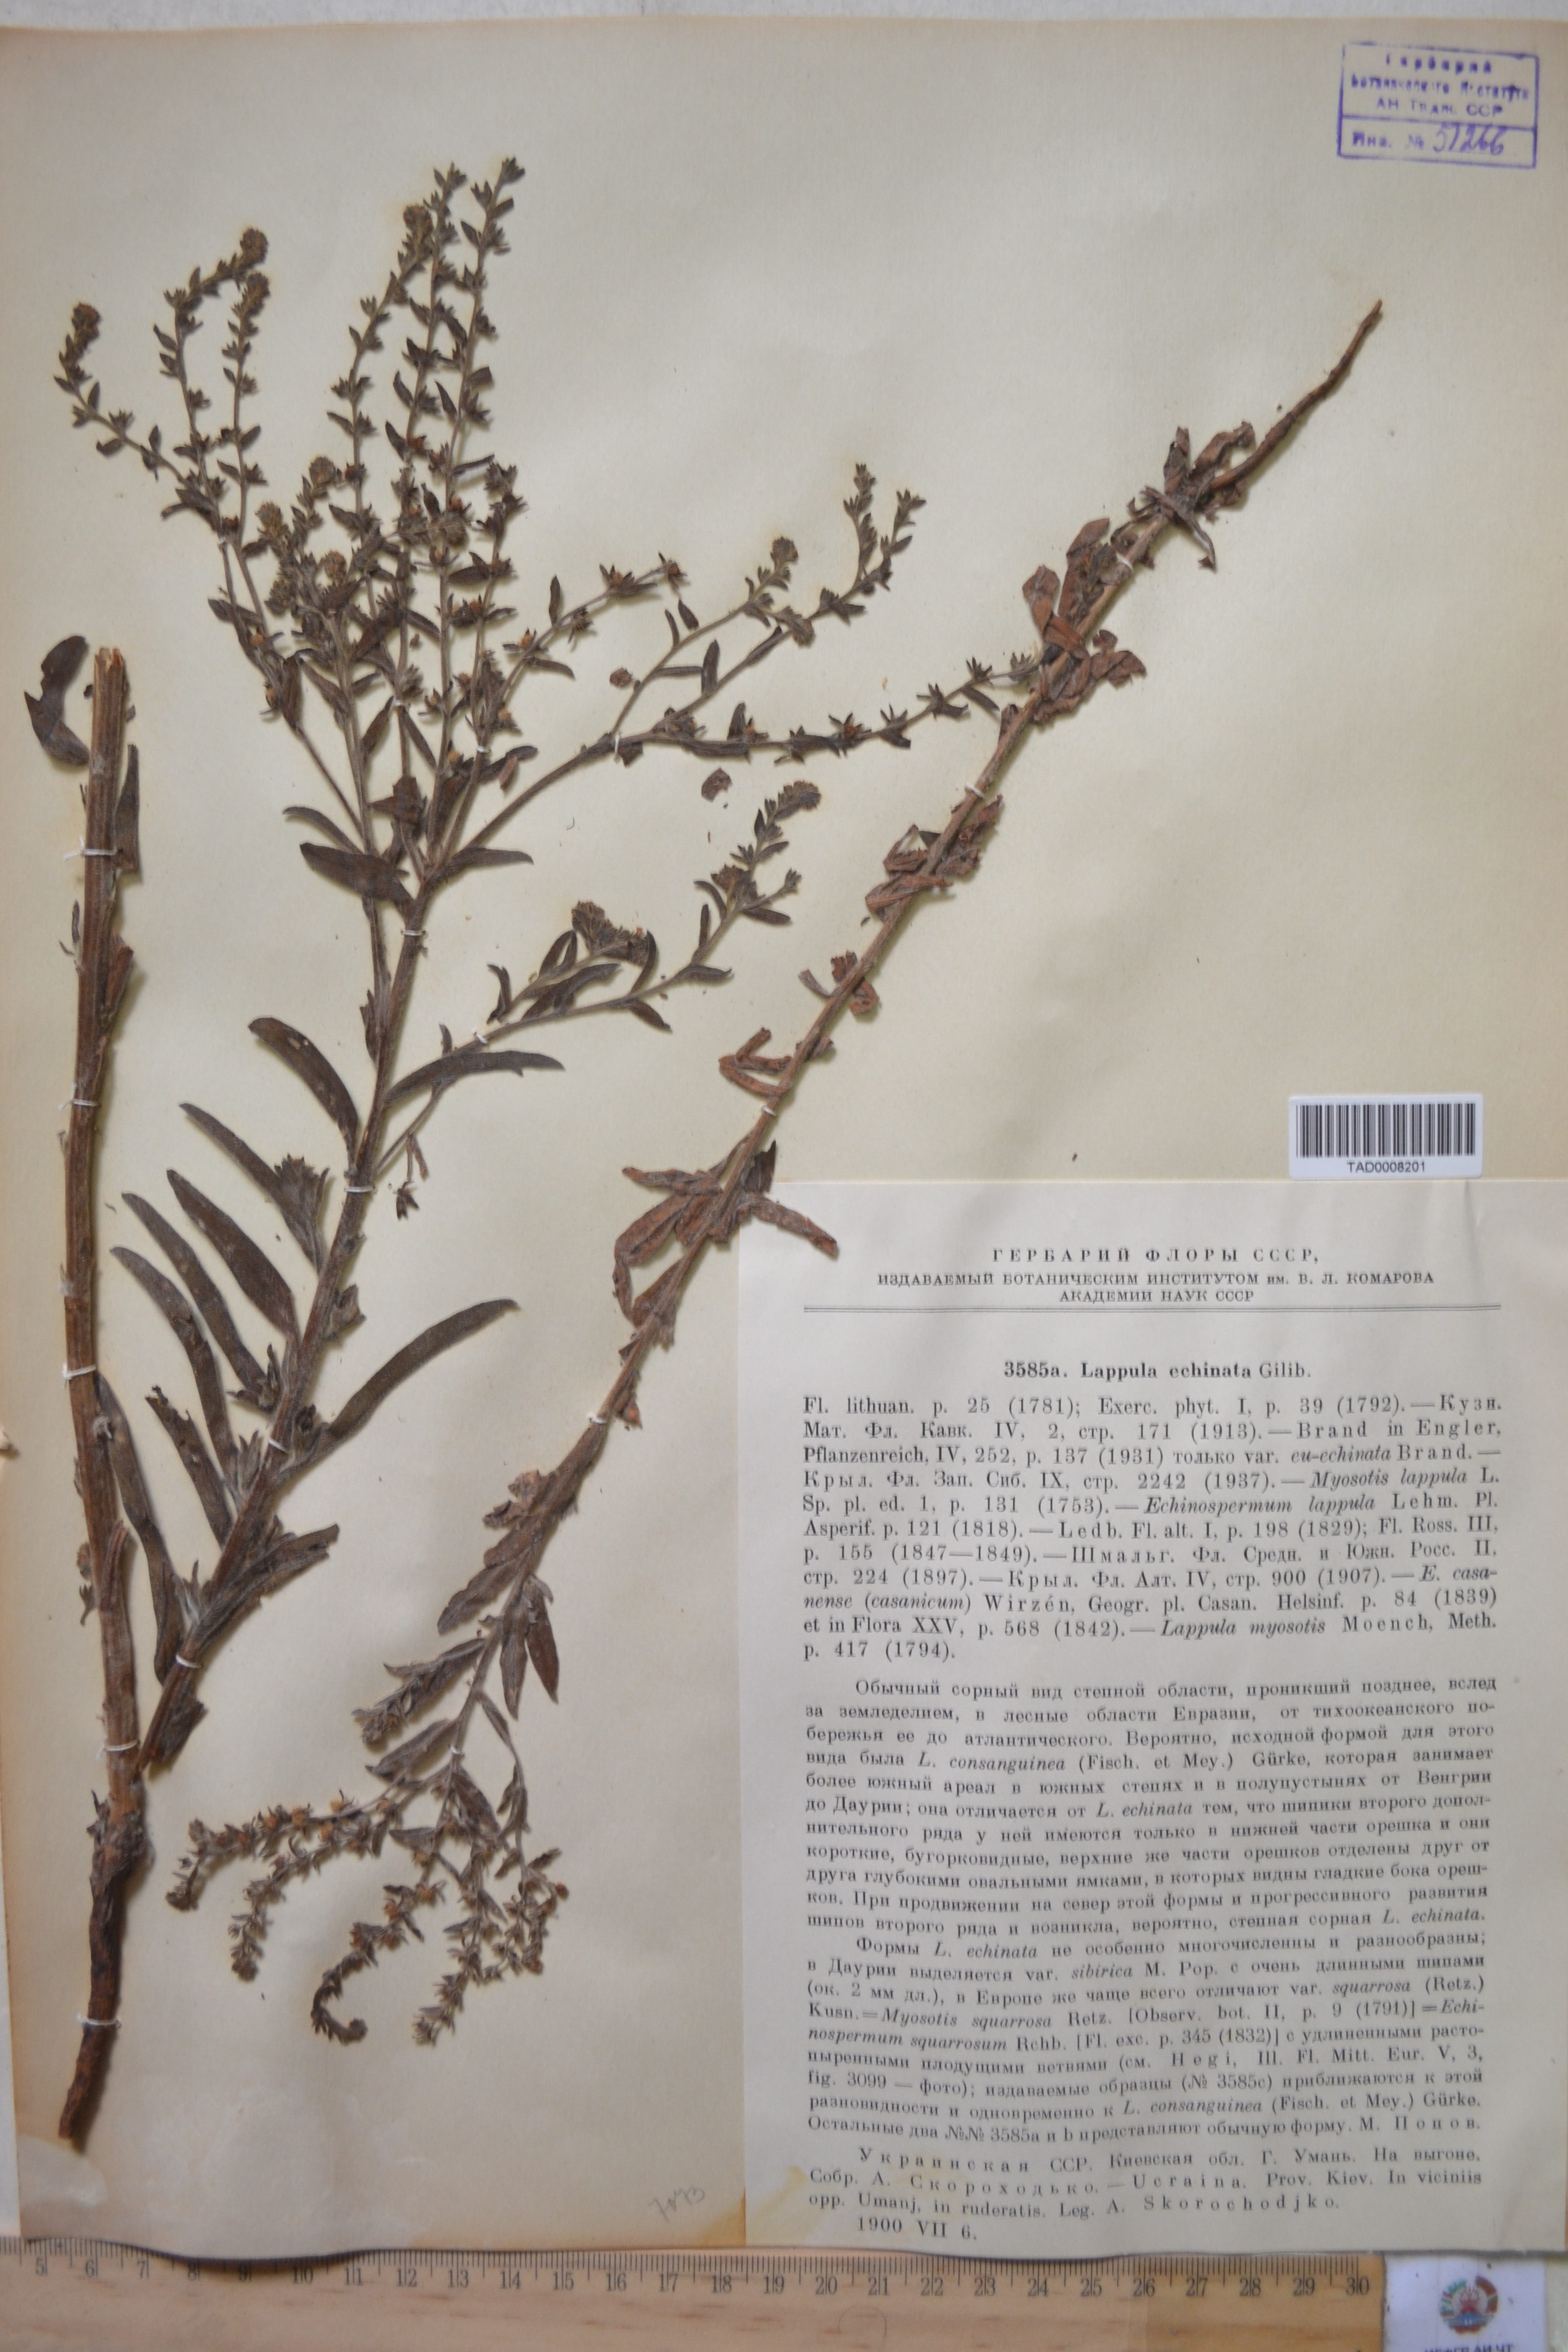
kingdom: Plantae
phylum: Tracheophyta
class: Magnoliopsida
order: Boraginales
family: Boraginaceae
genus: Lappula
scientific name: Lappula squarrosa
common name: European stickseed
